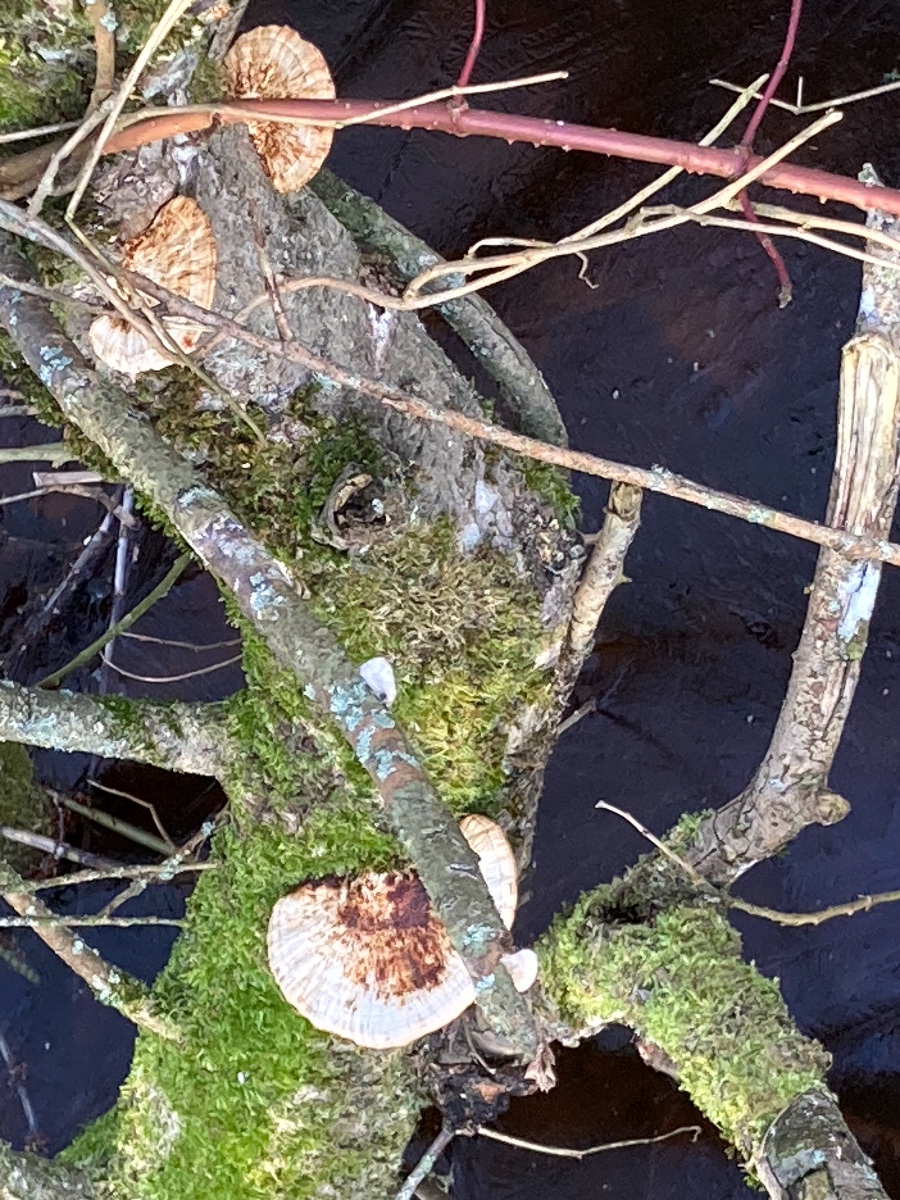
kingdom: Fungi
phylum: Basidiomycota
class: Agaricomycetes
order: Polyporales
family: Polyporaceae
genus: Daedaleopsis
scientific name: Daedaleopsis confragosa
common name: rødmende læderporesvamp
